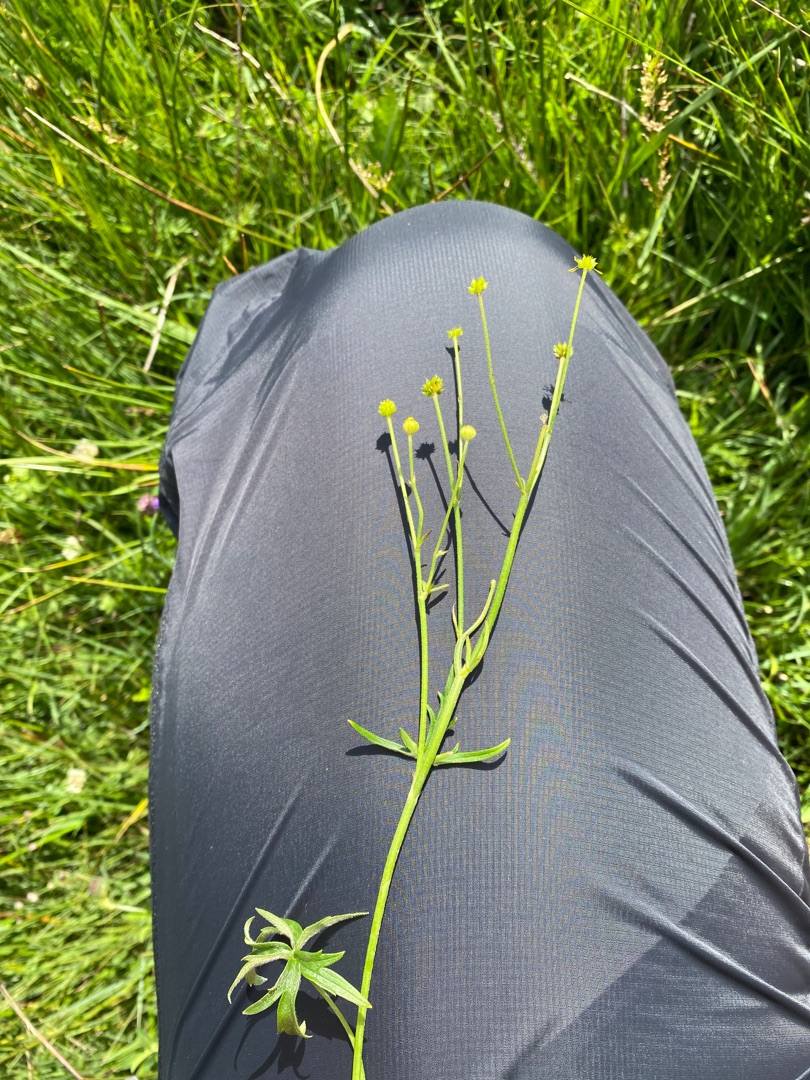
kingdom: Plantae
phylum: Tracheophyta
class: Magnoliopsida
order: Ranunculales
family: Ranunculaceae
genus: Ranunculus
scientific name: Ranunculus flammula
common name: Kær-ranunkel
